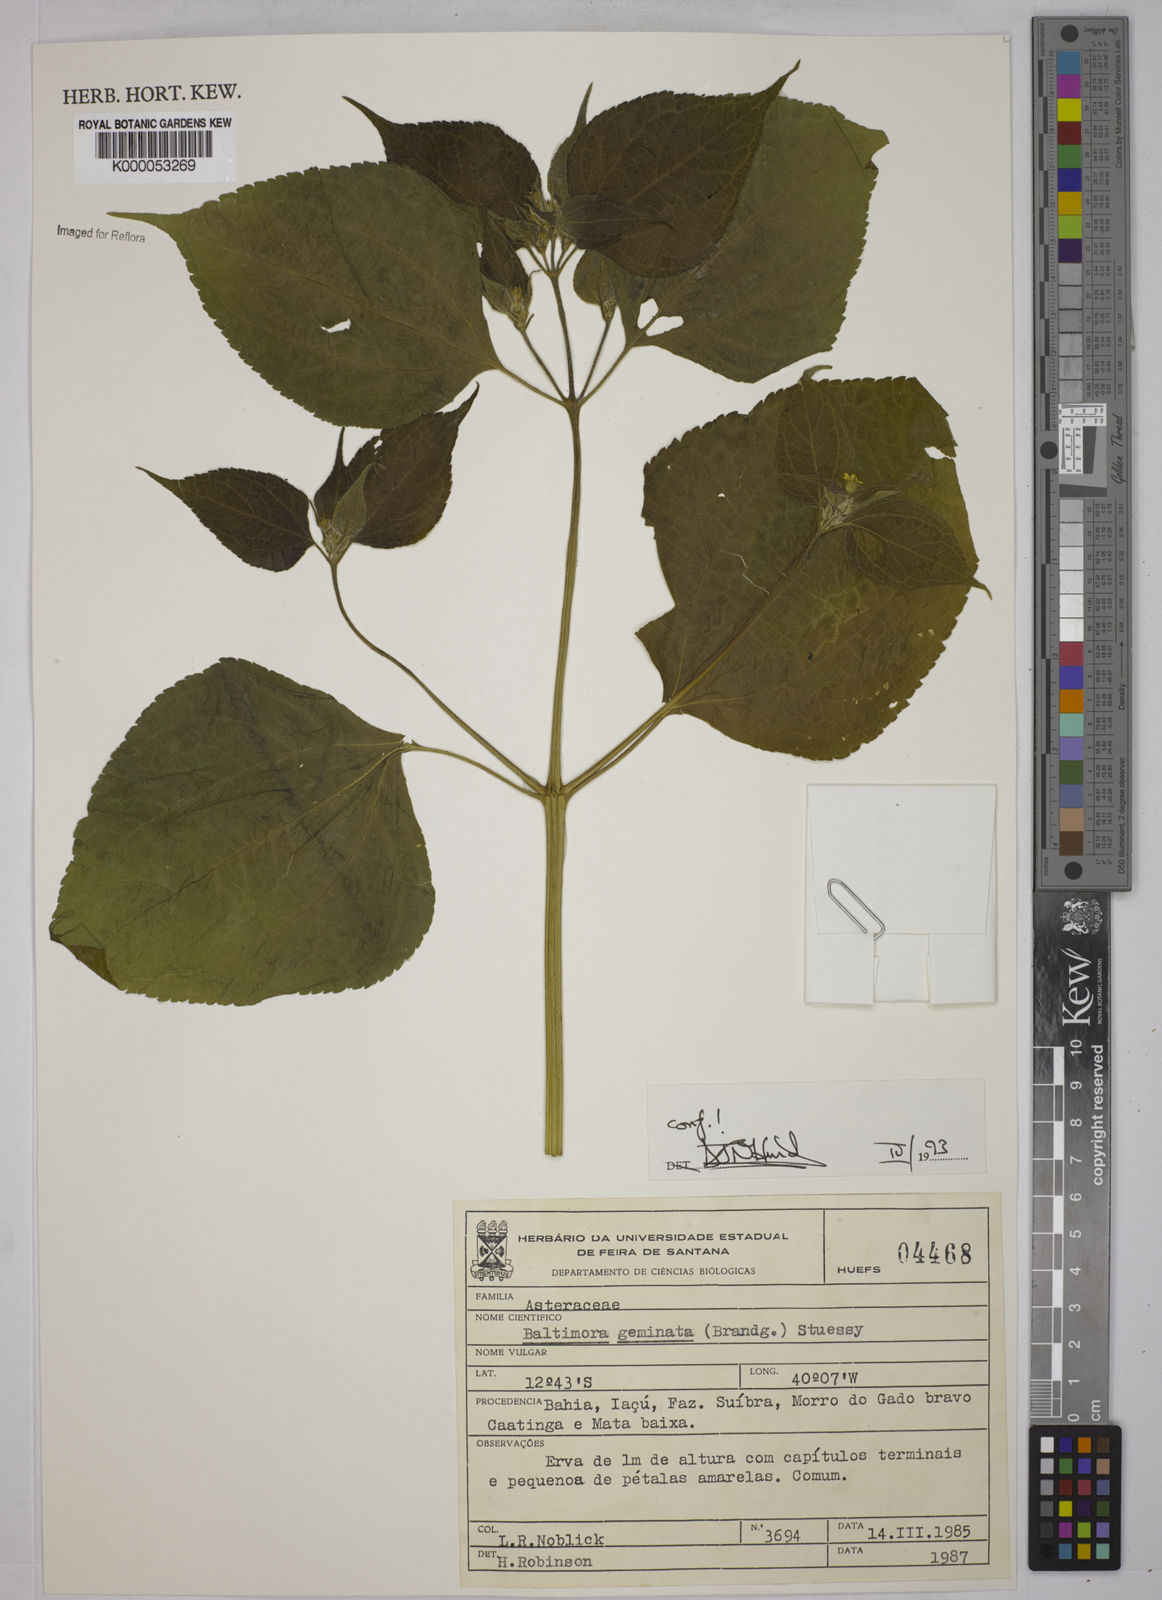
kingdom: Plantae
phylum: Tracheophyta
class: Magnoliopsida
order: Asterales
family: Asteraceae
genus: Baltimora
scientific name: Baltimora geminata
